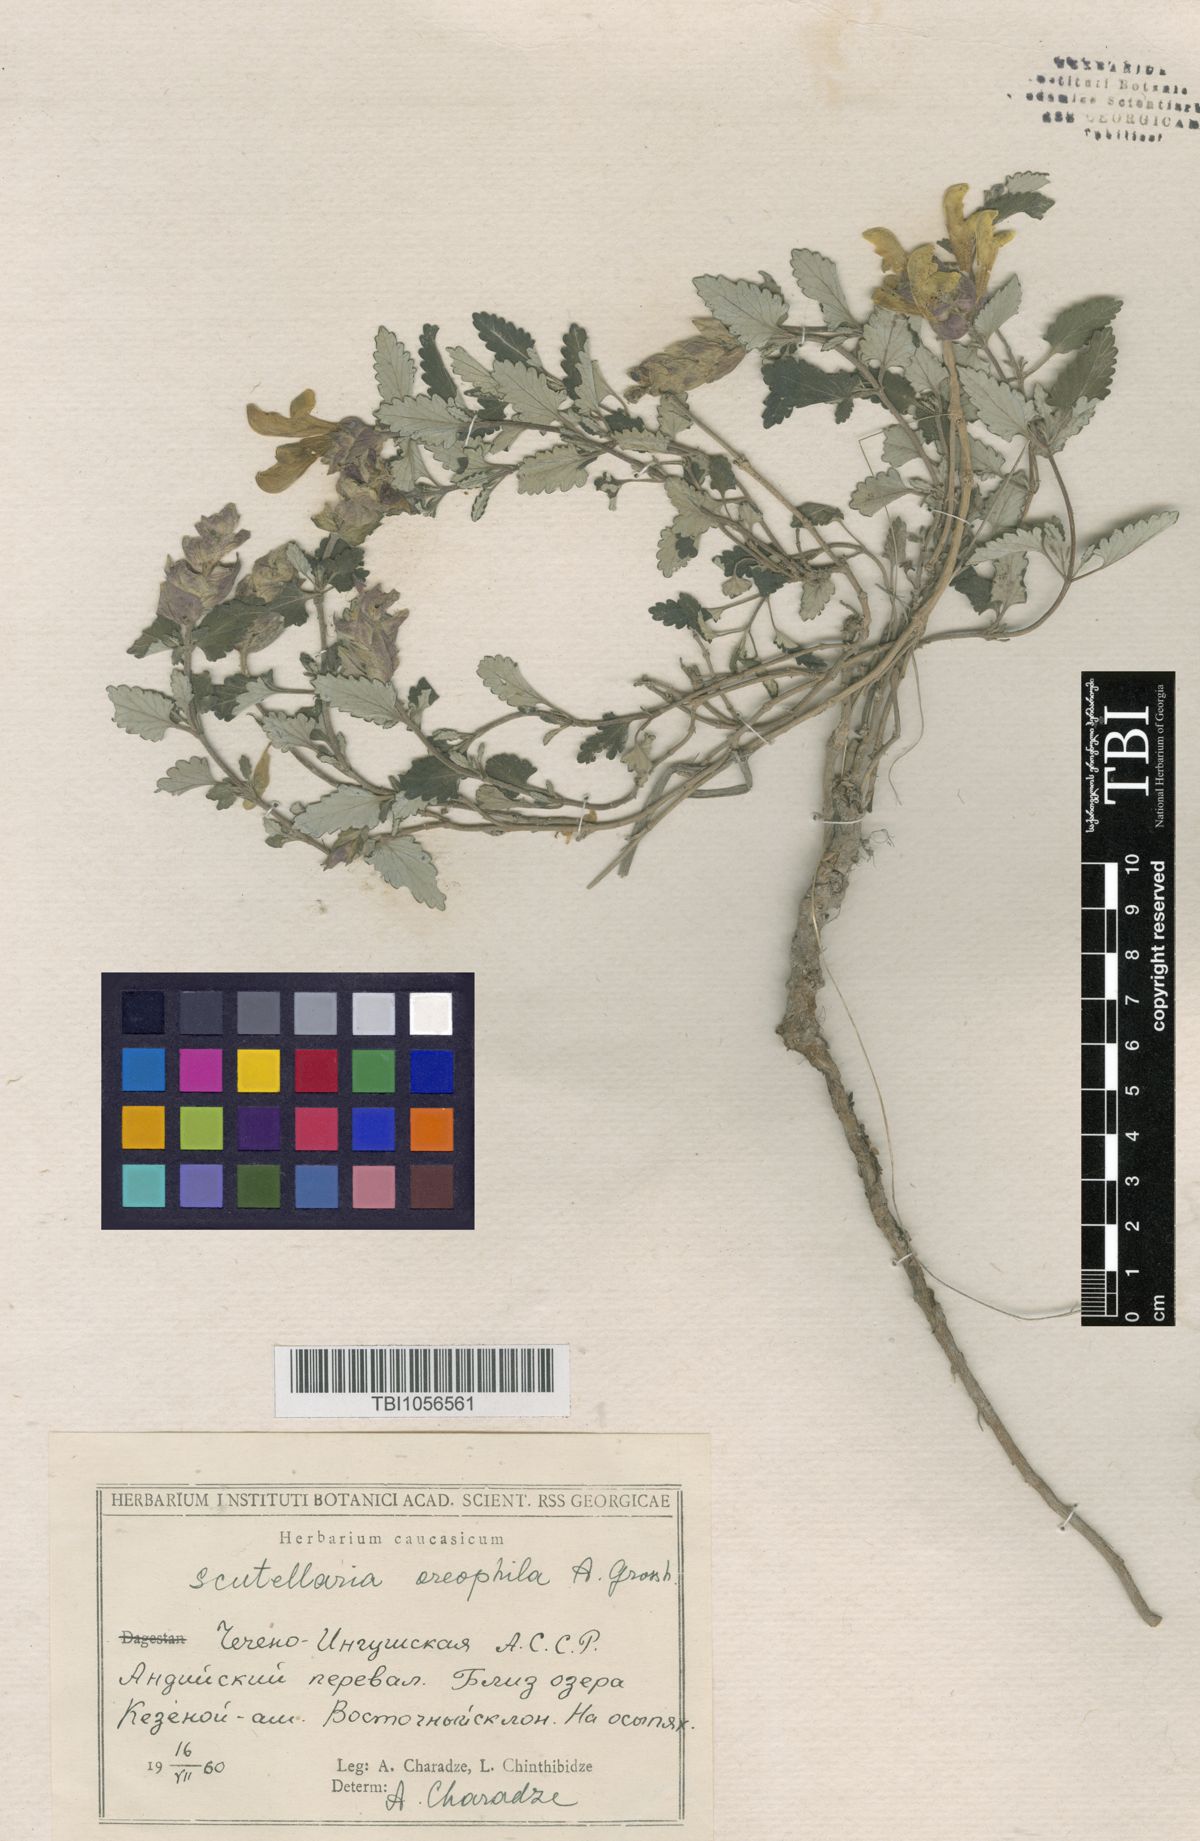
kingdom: Plantae
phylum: Tracheophyta
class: Magnoliopsida
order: Lamiales
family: Lamiaceae
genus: Scutellaria
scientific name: Scutellaria oreophila
